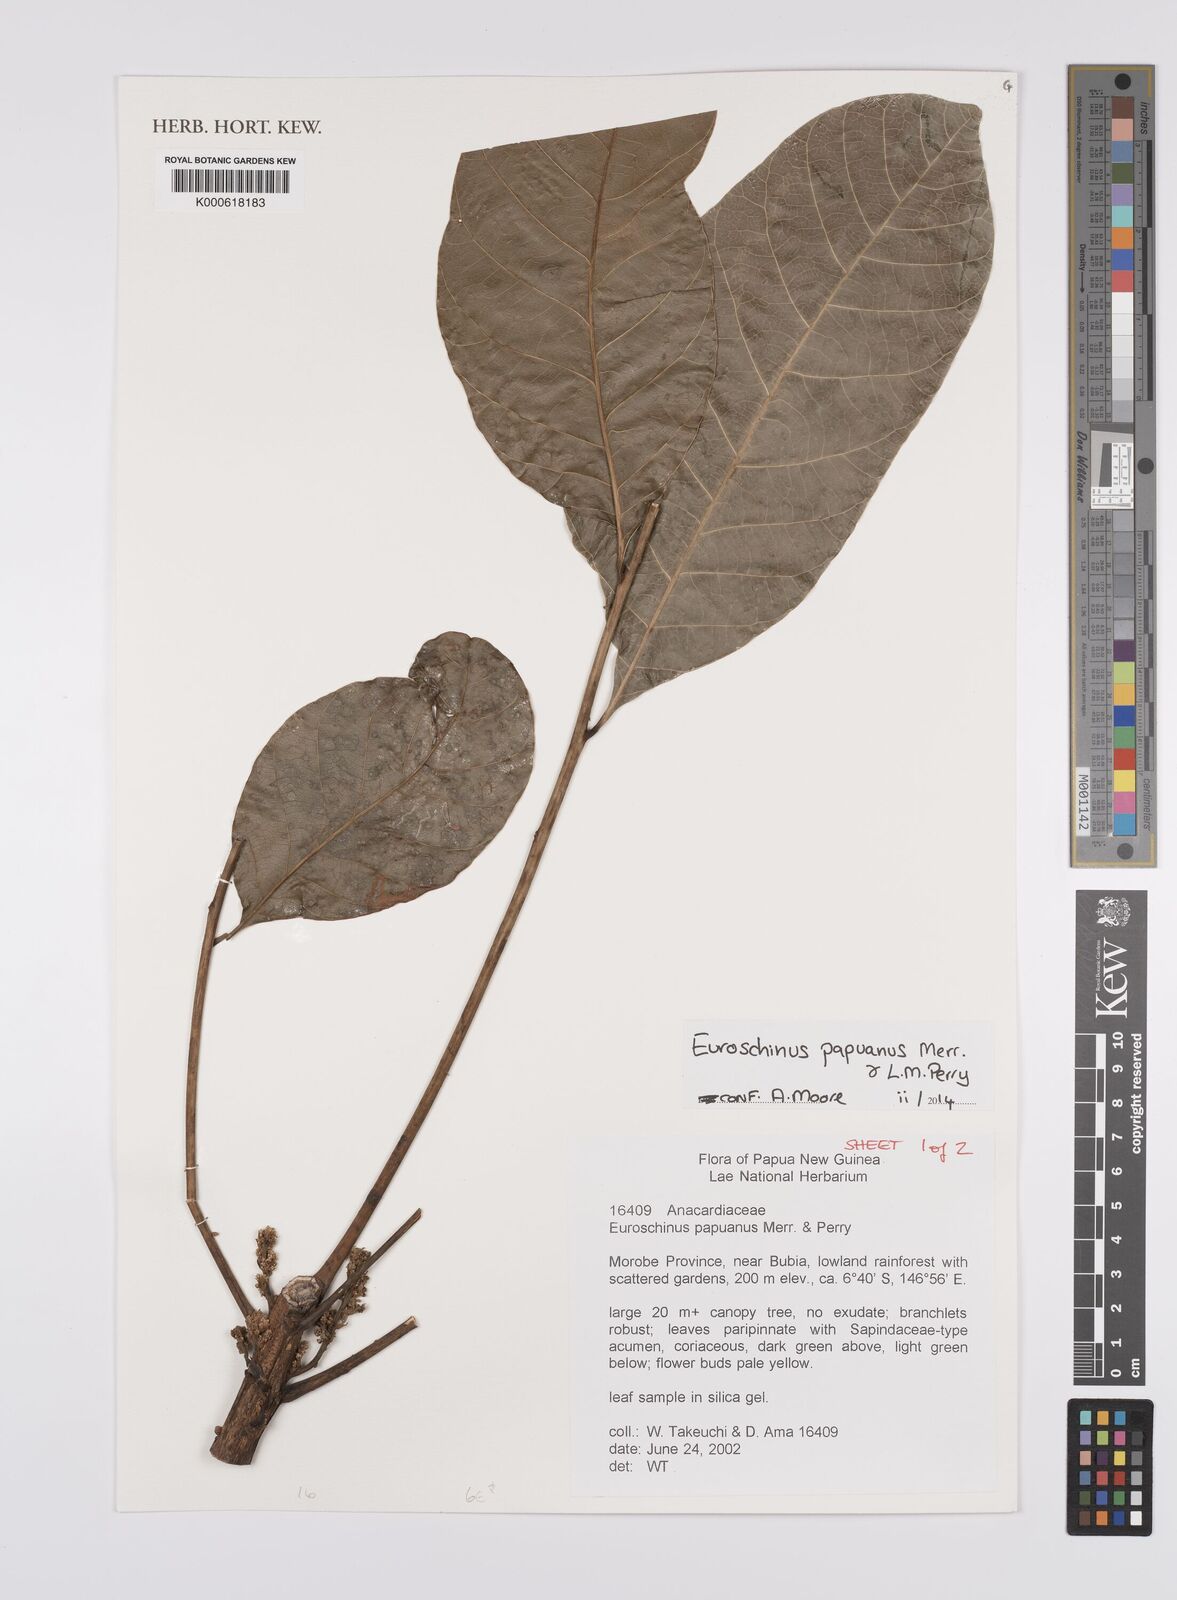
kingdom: Plantae
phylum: Tracheophyta
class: Magnoliopsida
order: Sapindales
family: Anacardiaceae
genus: Euroschinus
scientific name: Euroschinus
